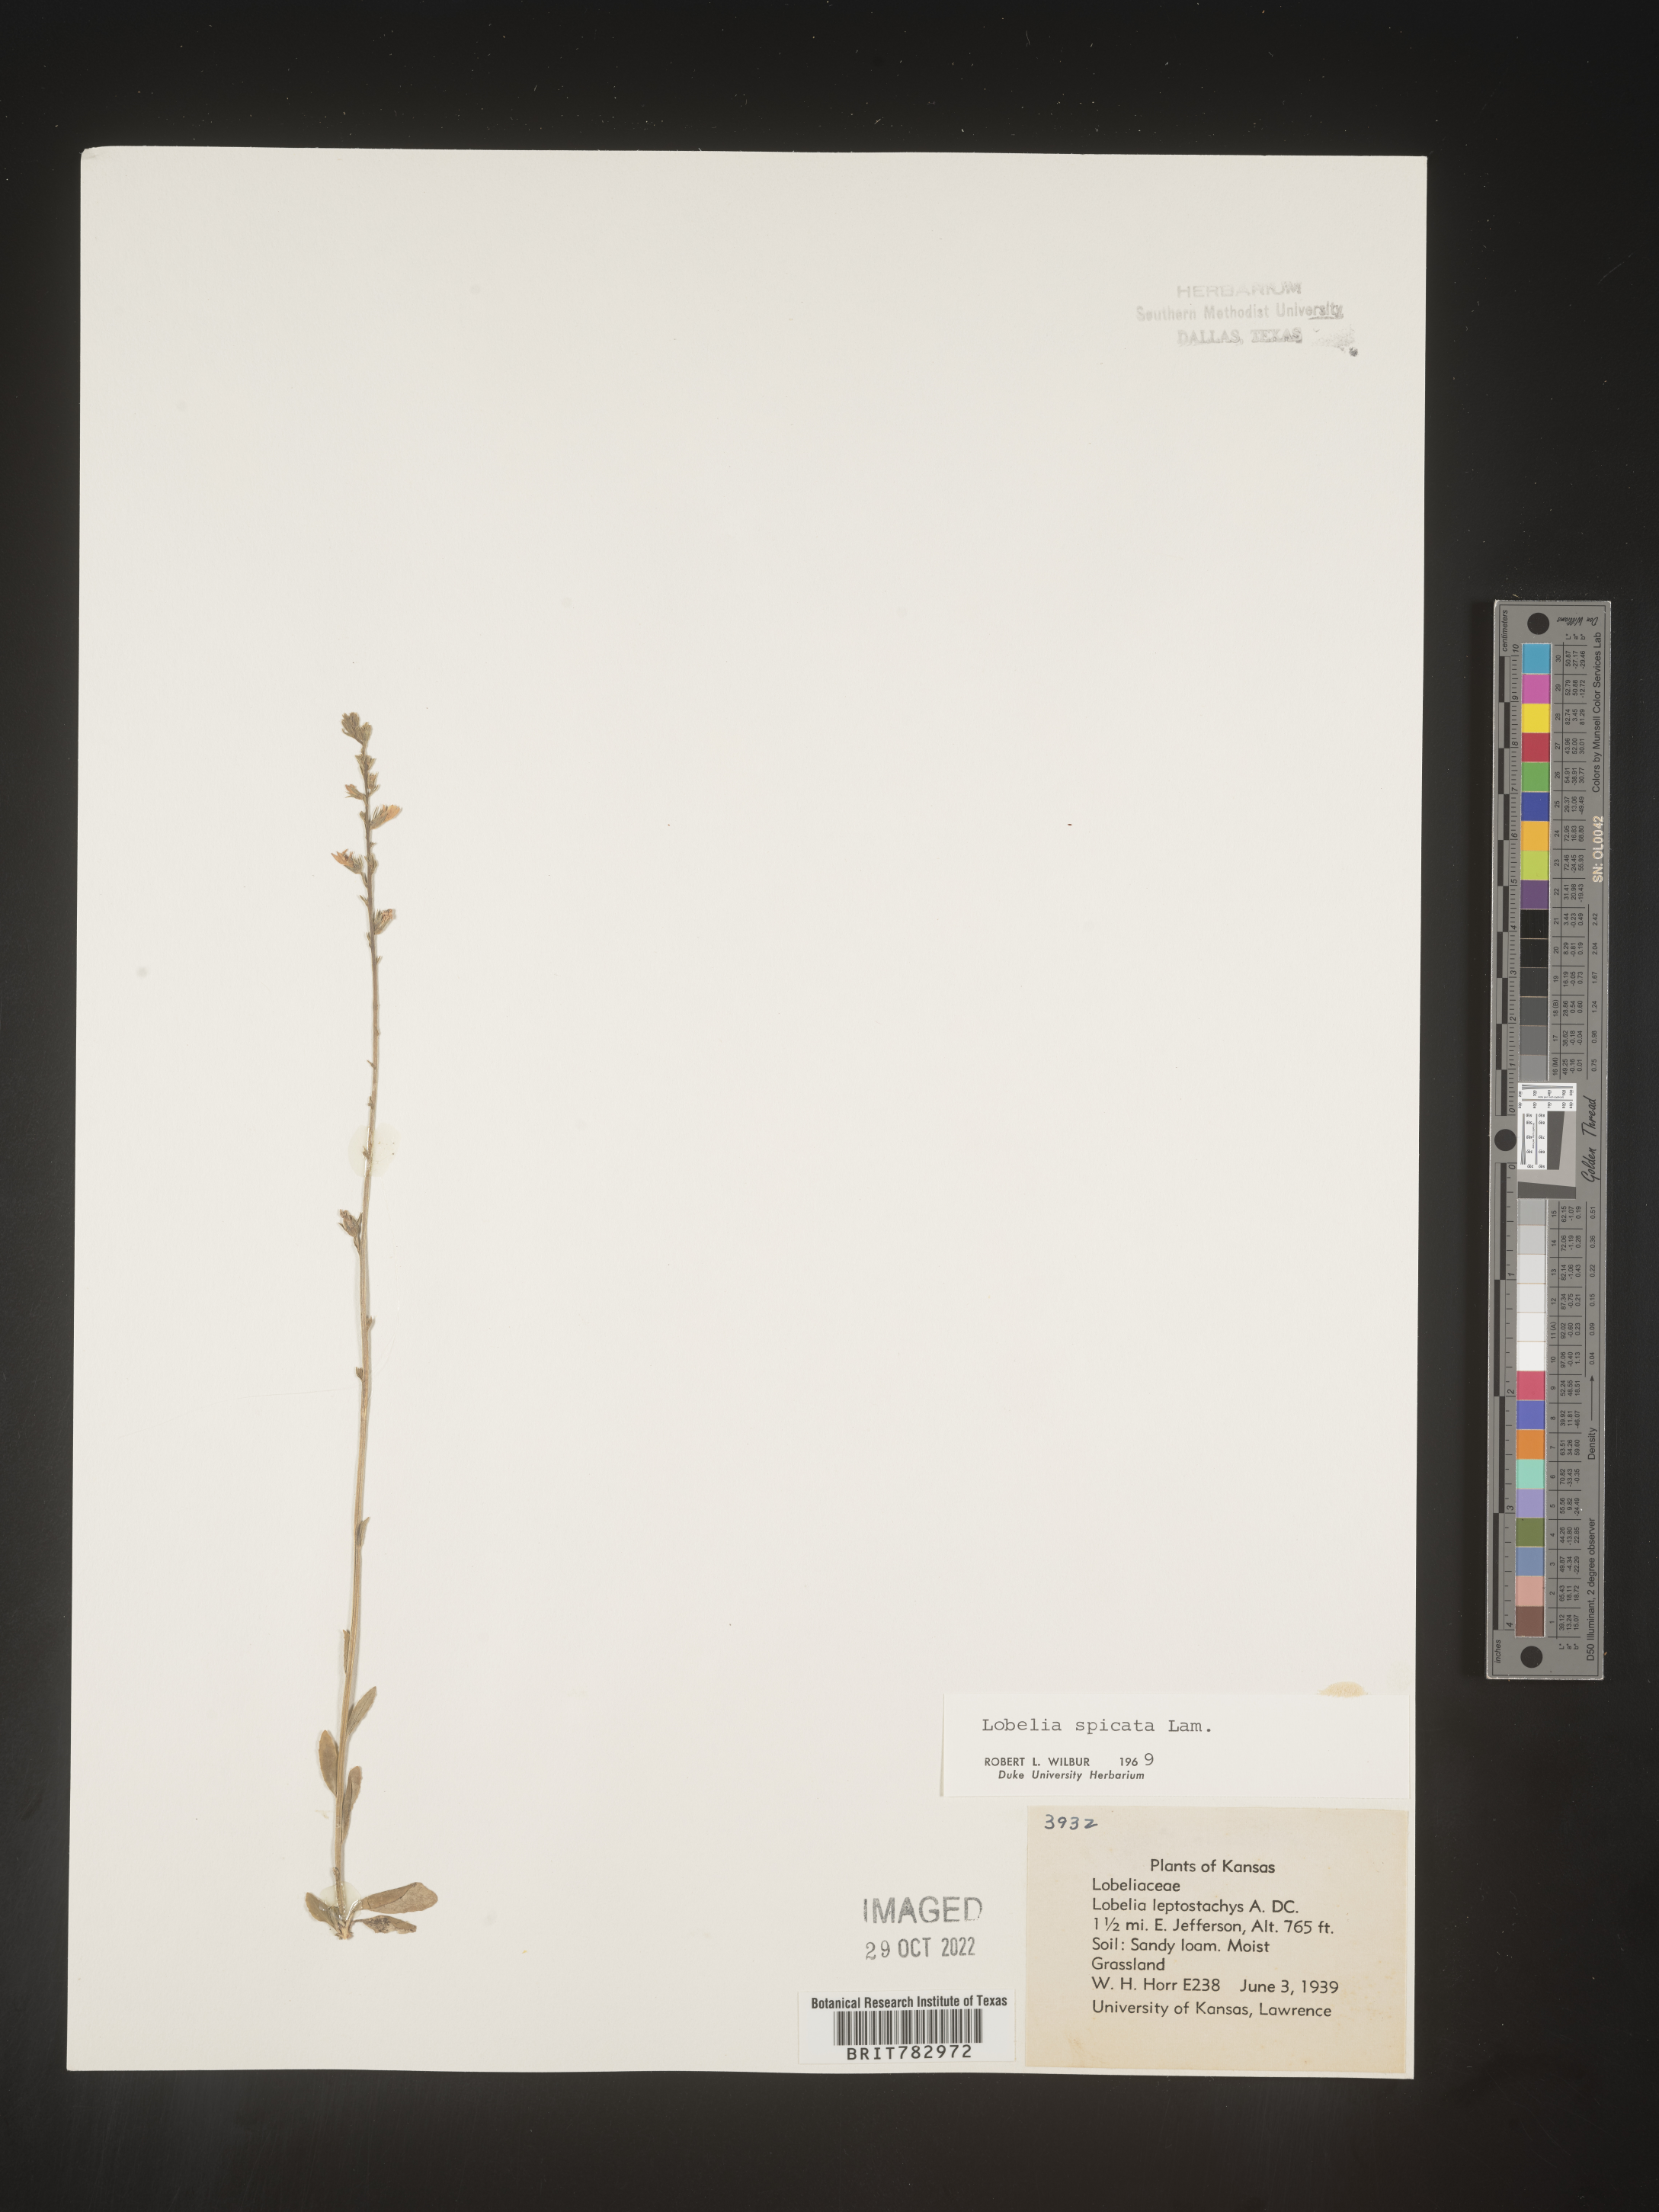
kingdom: Plantae
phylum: Tracheophyta
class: Magnoliopsida
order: Asterales
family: Campanulaceae
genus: Lobelia
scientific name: Lobelia spicata
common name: Pale-spike lobelia
